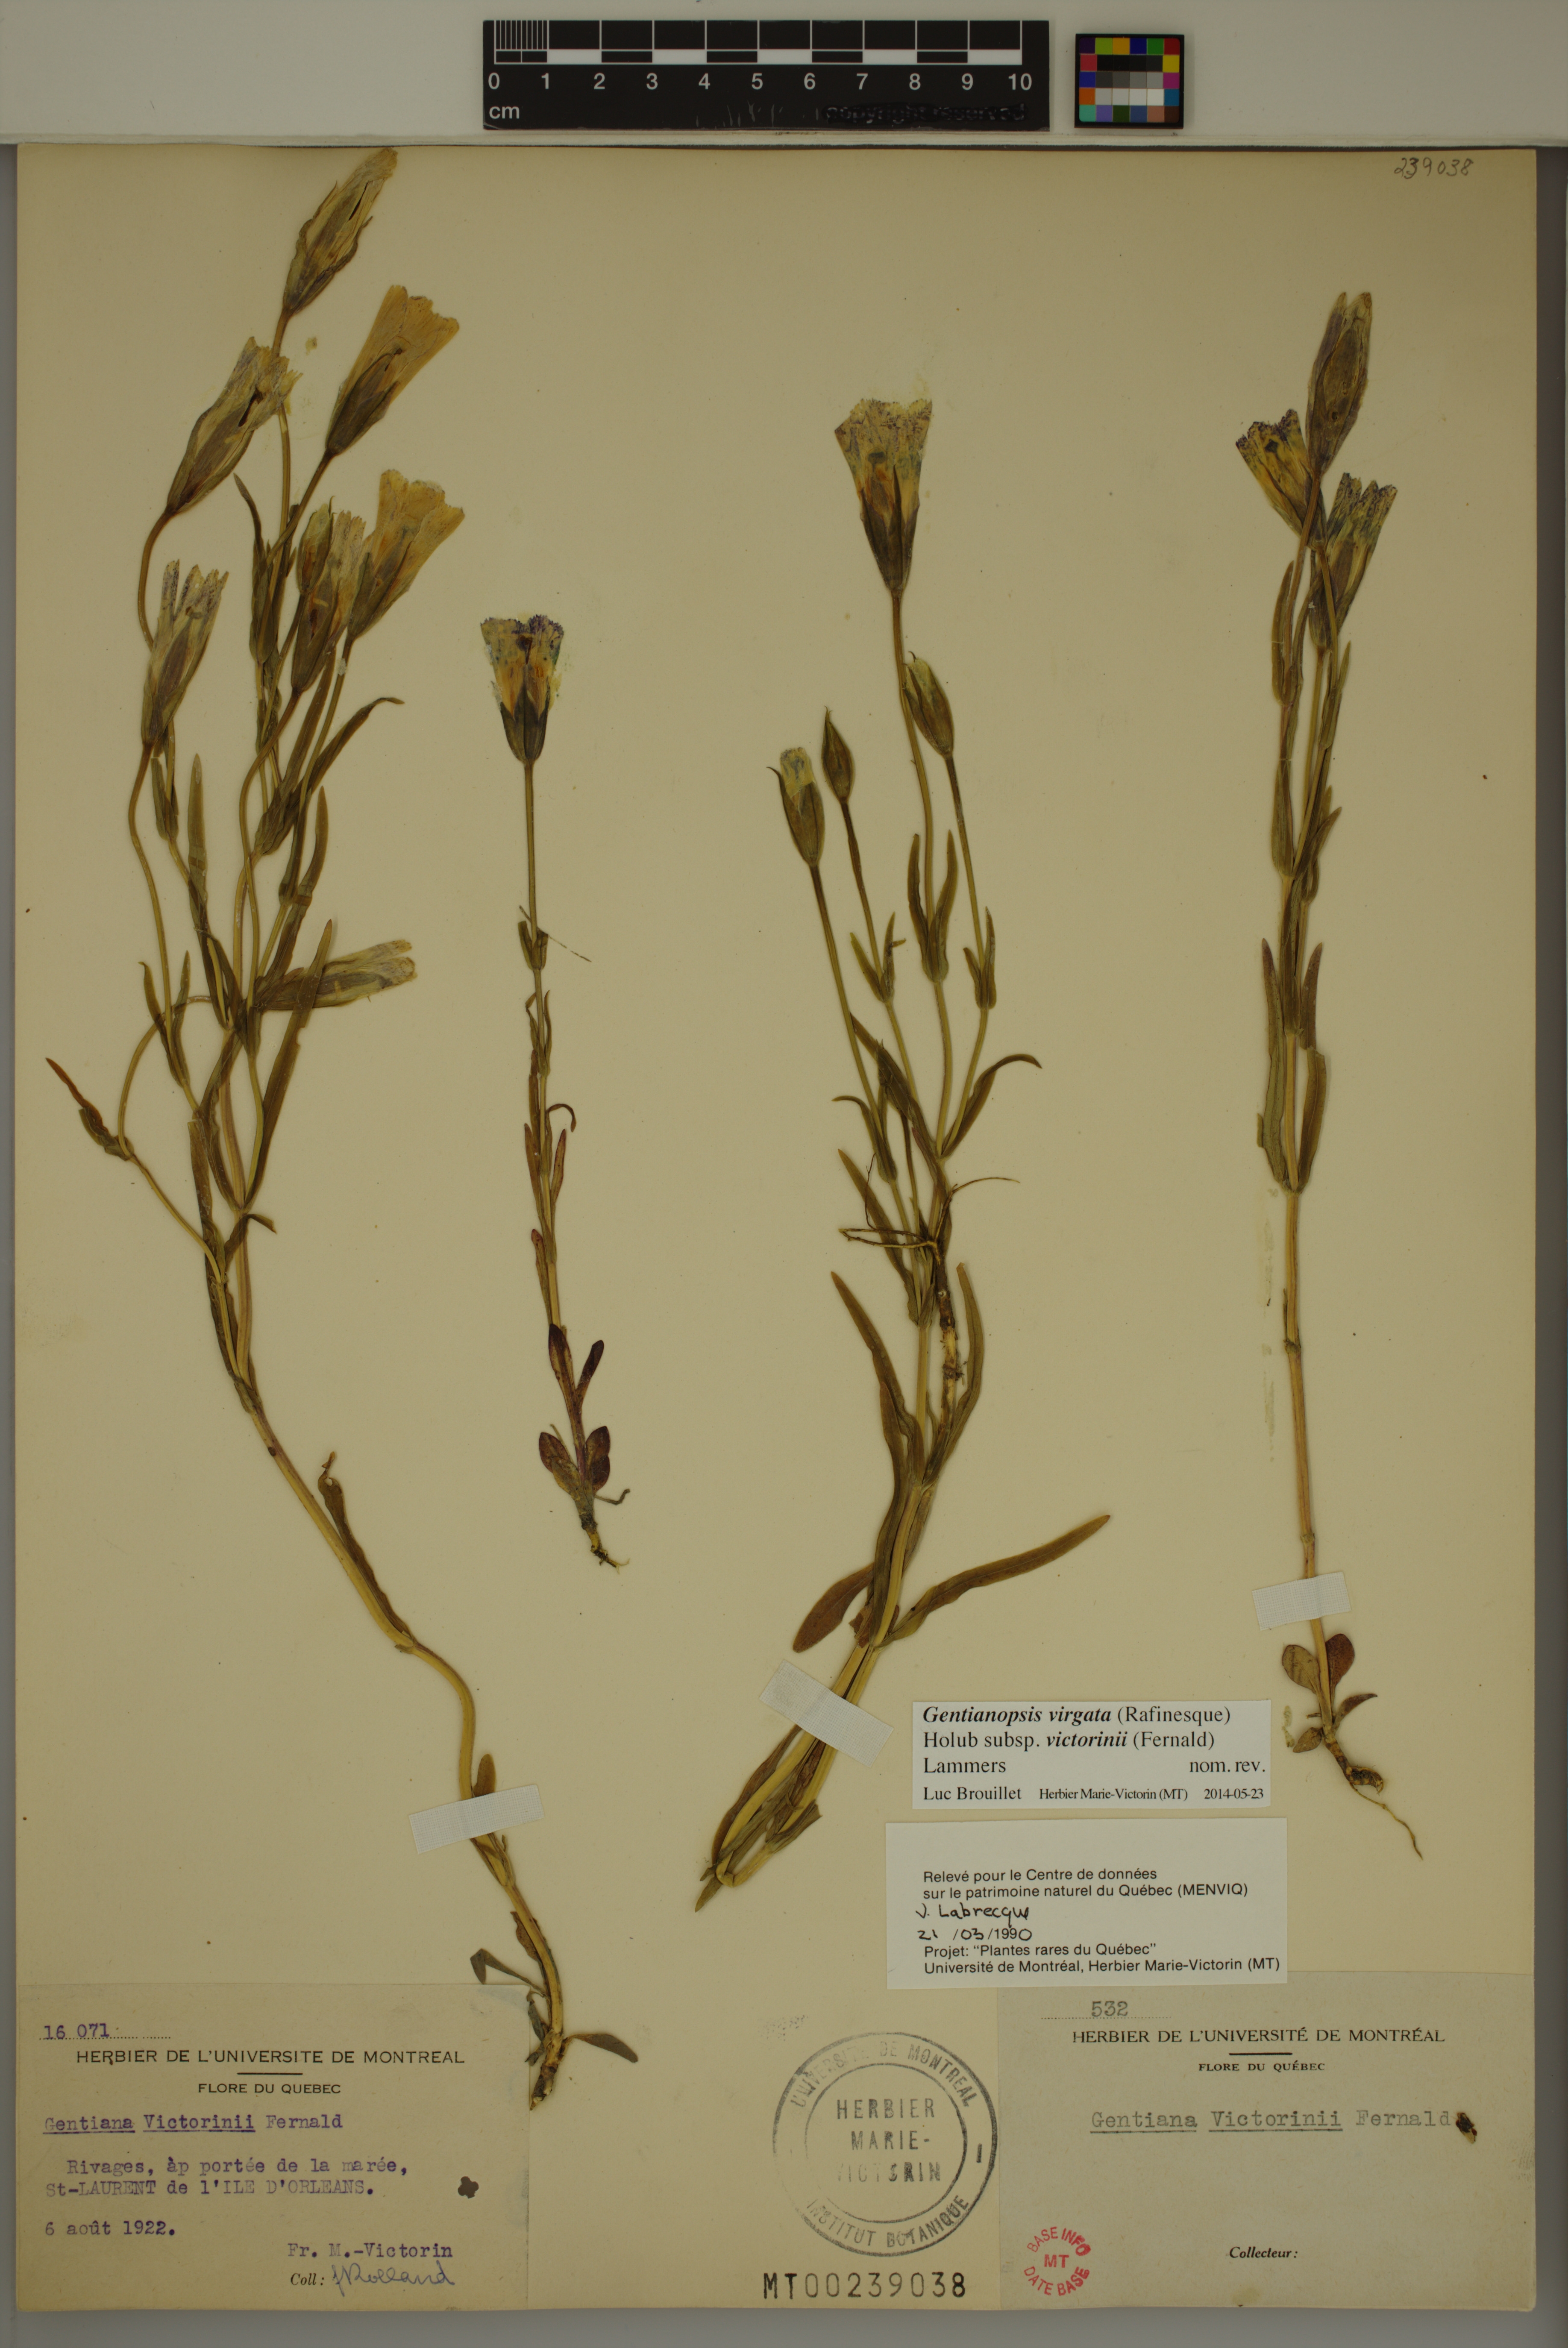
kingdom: Plantae
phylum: Tracheophyta
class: Magnoliopsida
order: Gentianales
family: Gentianaceae
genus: Gentianopsis
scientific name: Gentianopsis victorinii
